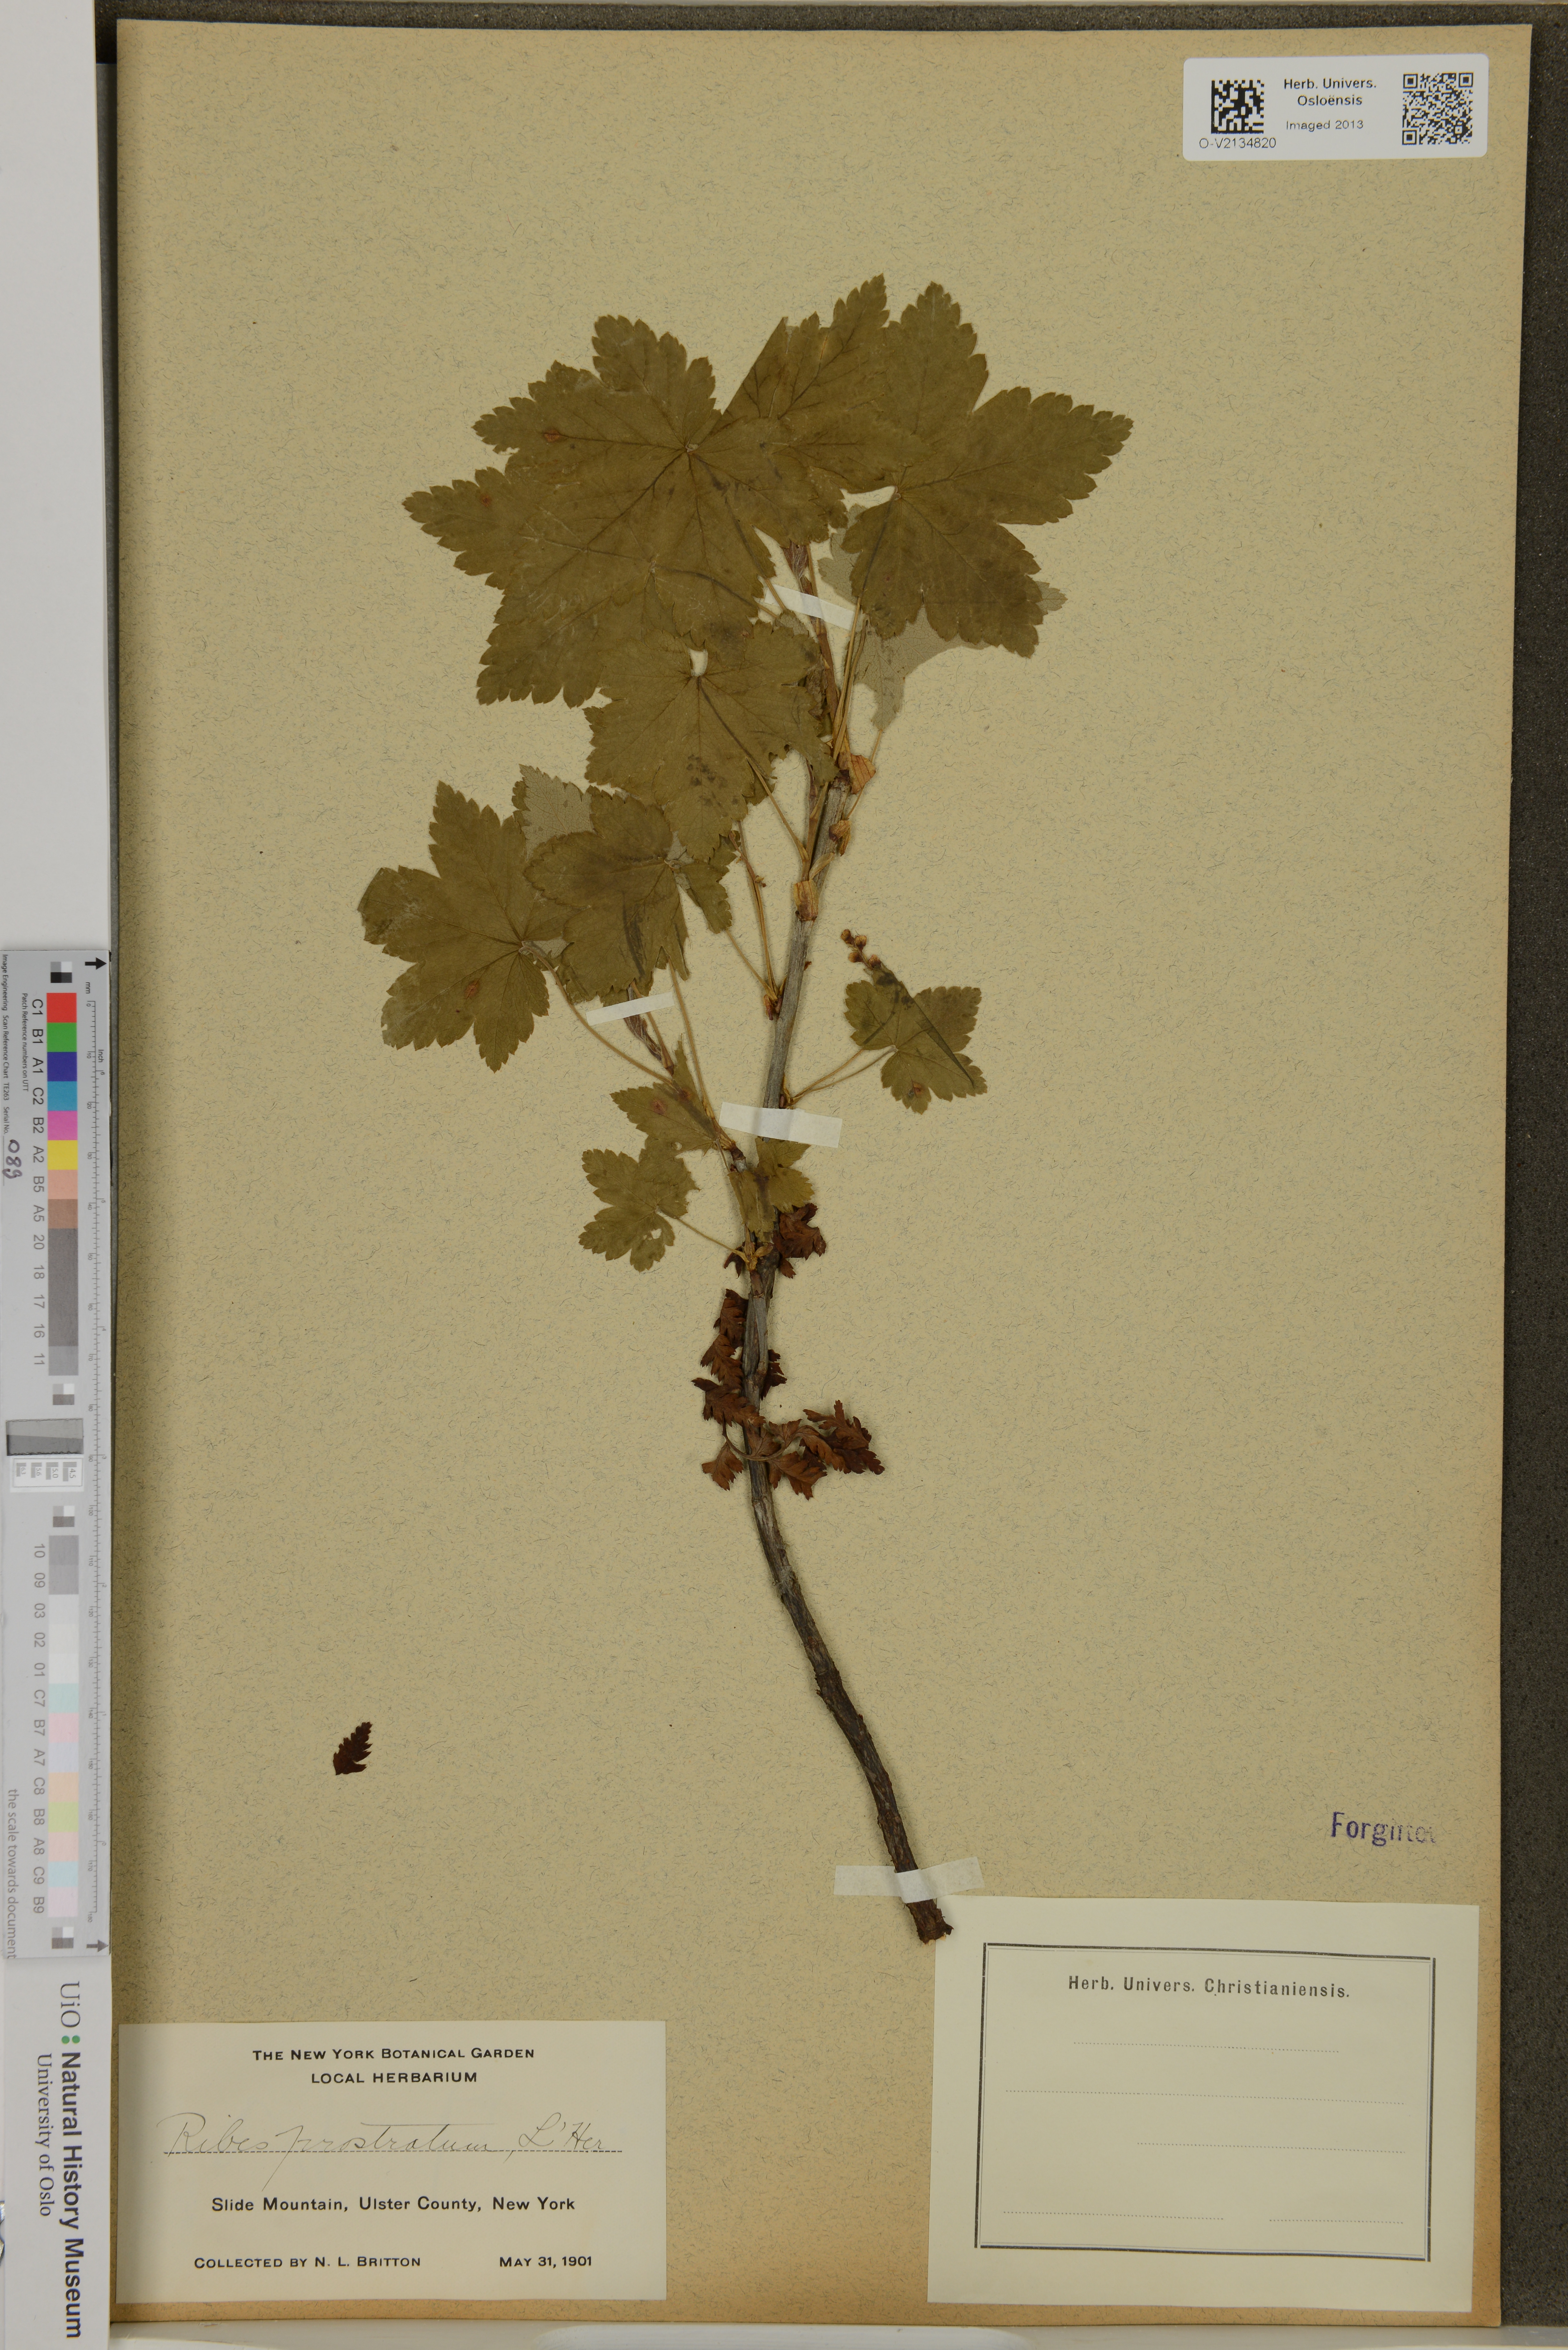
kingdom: Plantae
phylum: Tracheophyta
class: Magnoliopsida
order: Saxifragales
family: Grossulariaceae
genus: Ribes
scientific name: Ribes glandulosum
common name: Skunk currant
